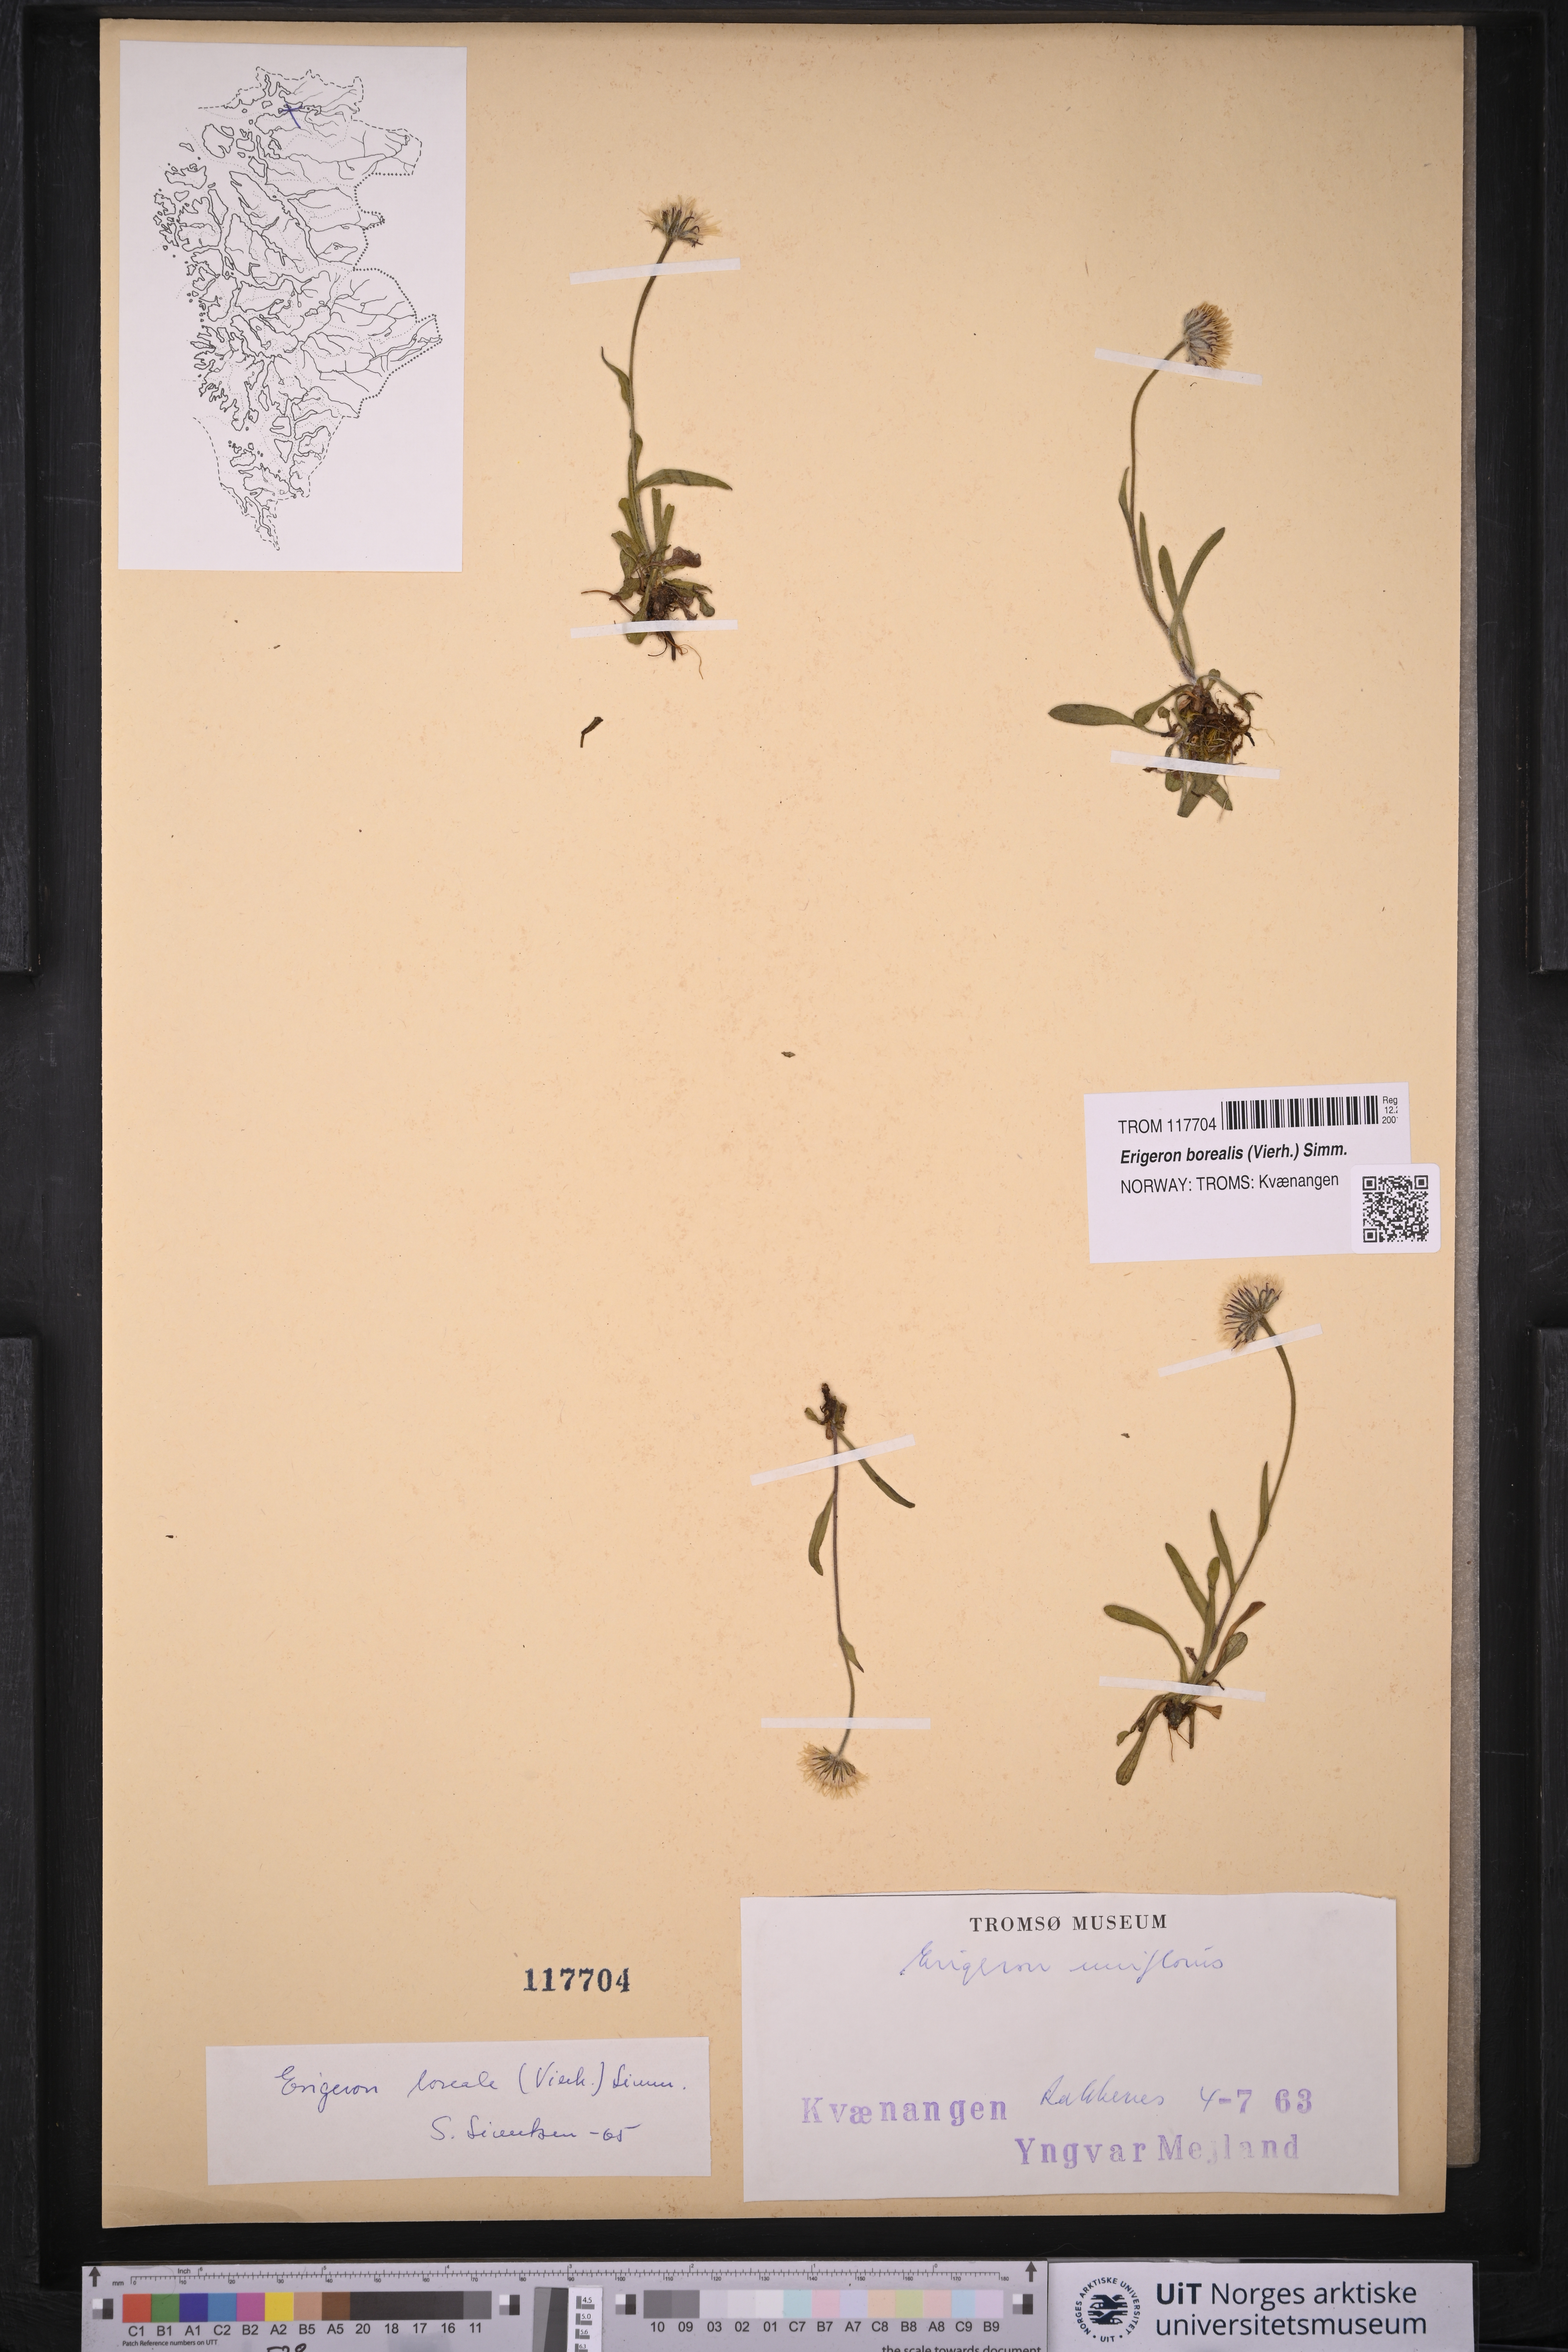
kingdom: Plantae
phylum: Tracheophyta
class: Magnoliopsida
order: Asterales
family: Asteraceae
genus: Erigeron
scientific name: Erigeron borealis
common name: Alpine fleabane
